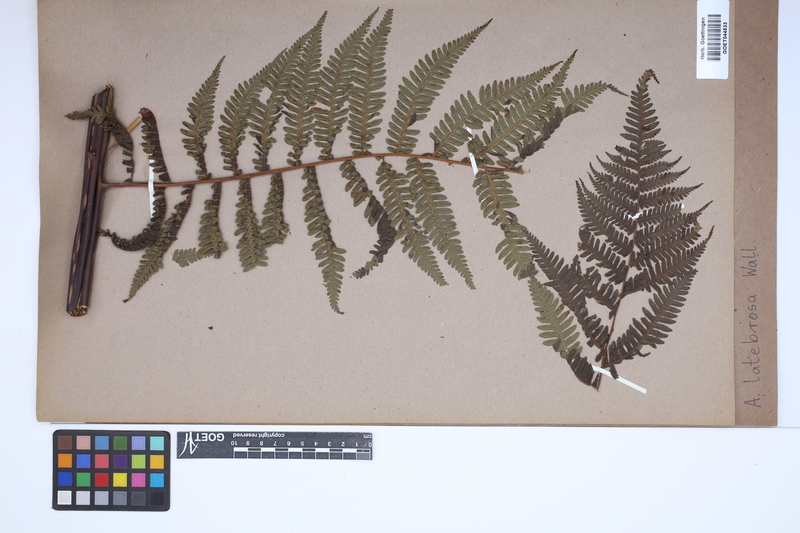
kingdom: Plantae
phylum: Tracheophyta
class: Polypodiopsida
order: Cyatheales
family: Cyatheaceae
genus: Alsophila
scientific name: Alsophila nilgirensis
